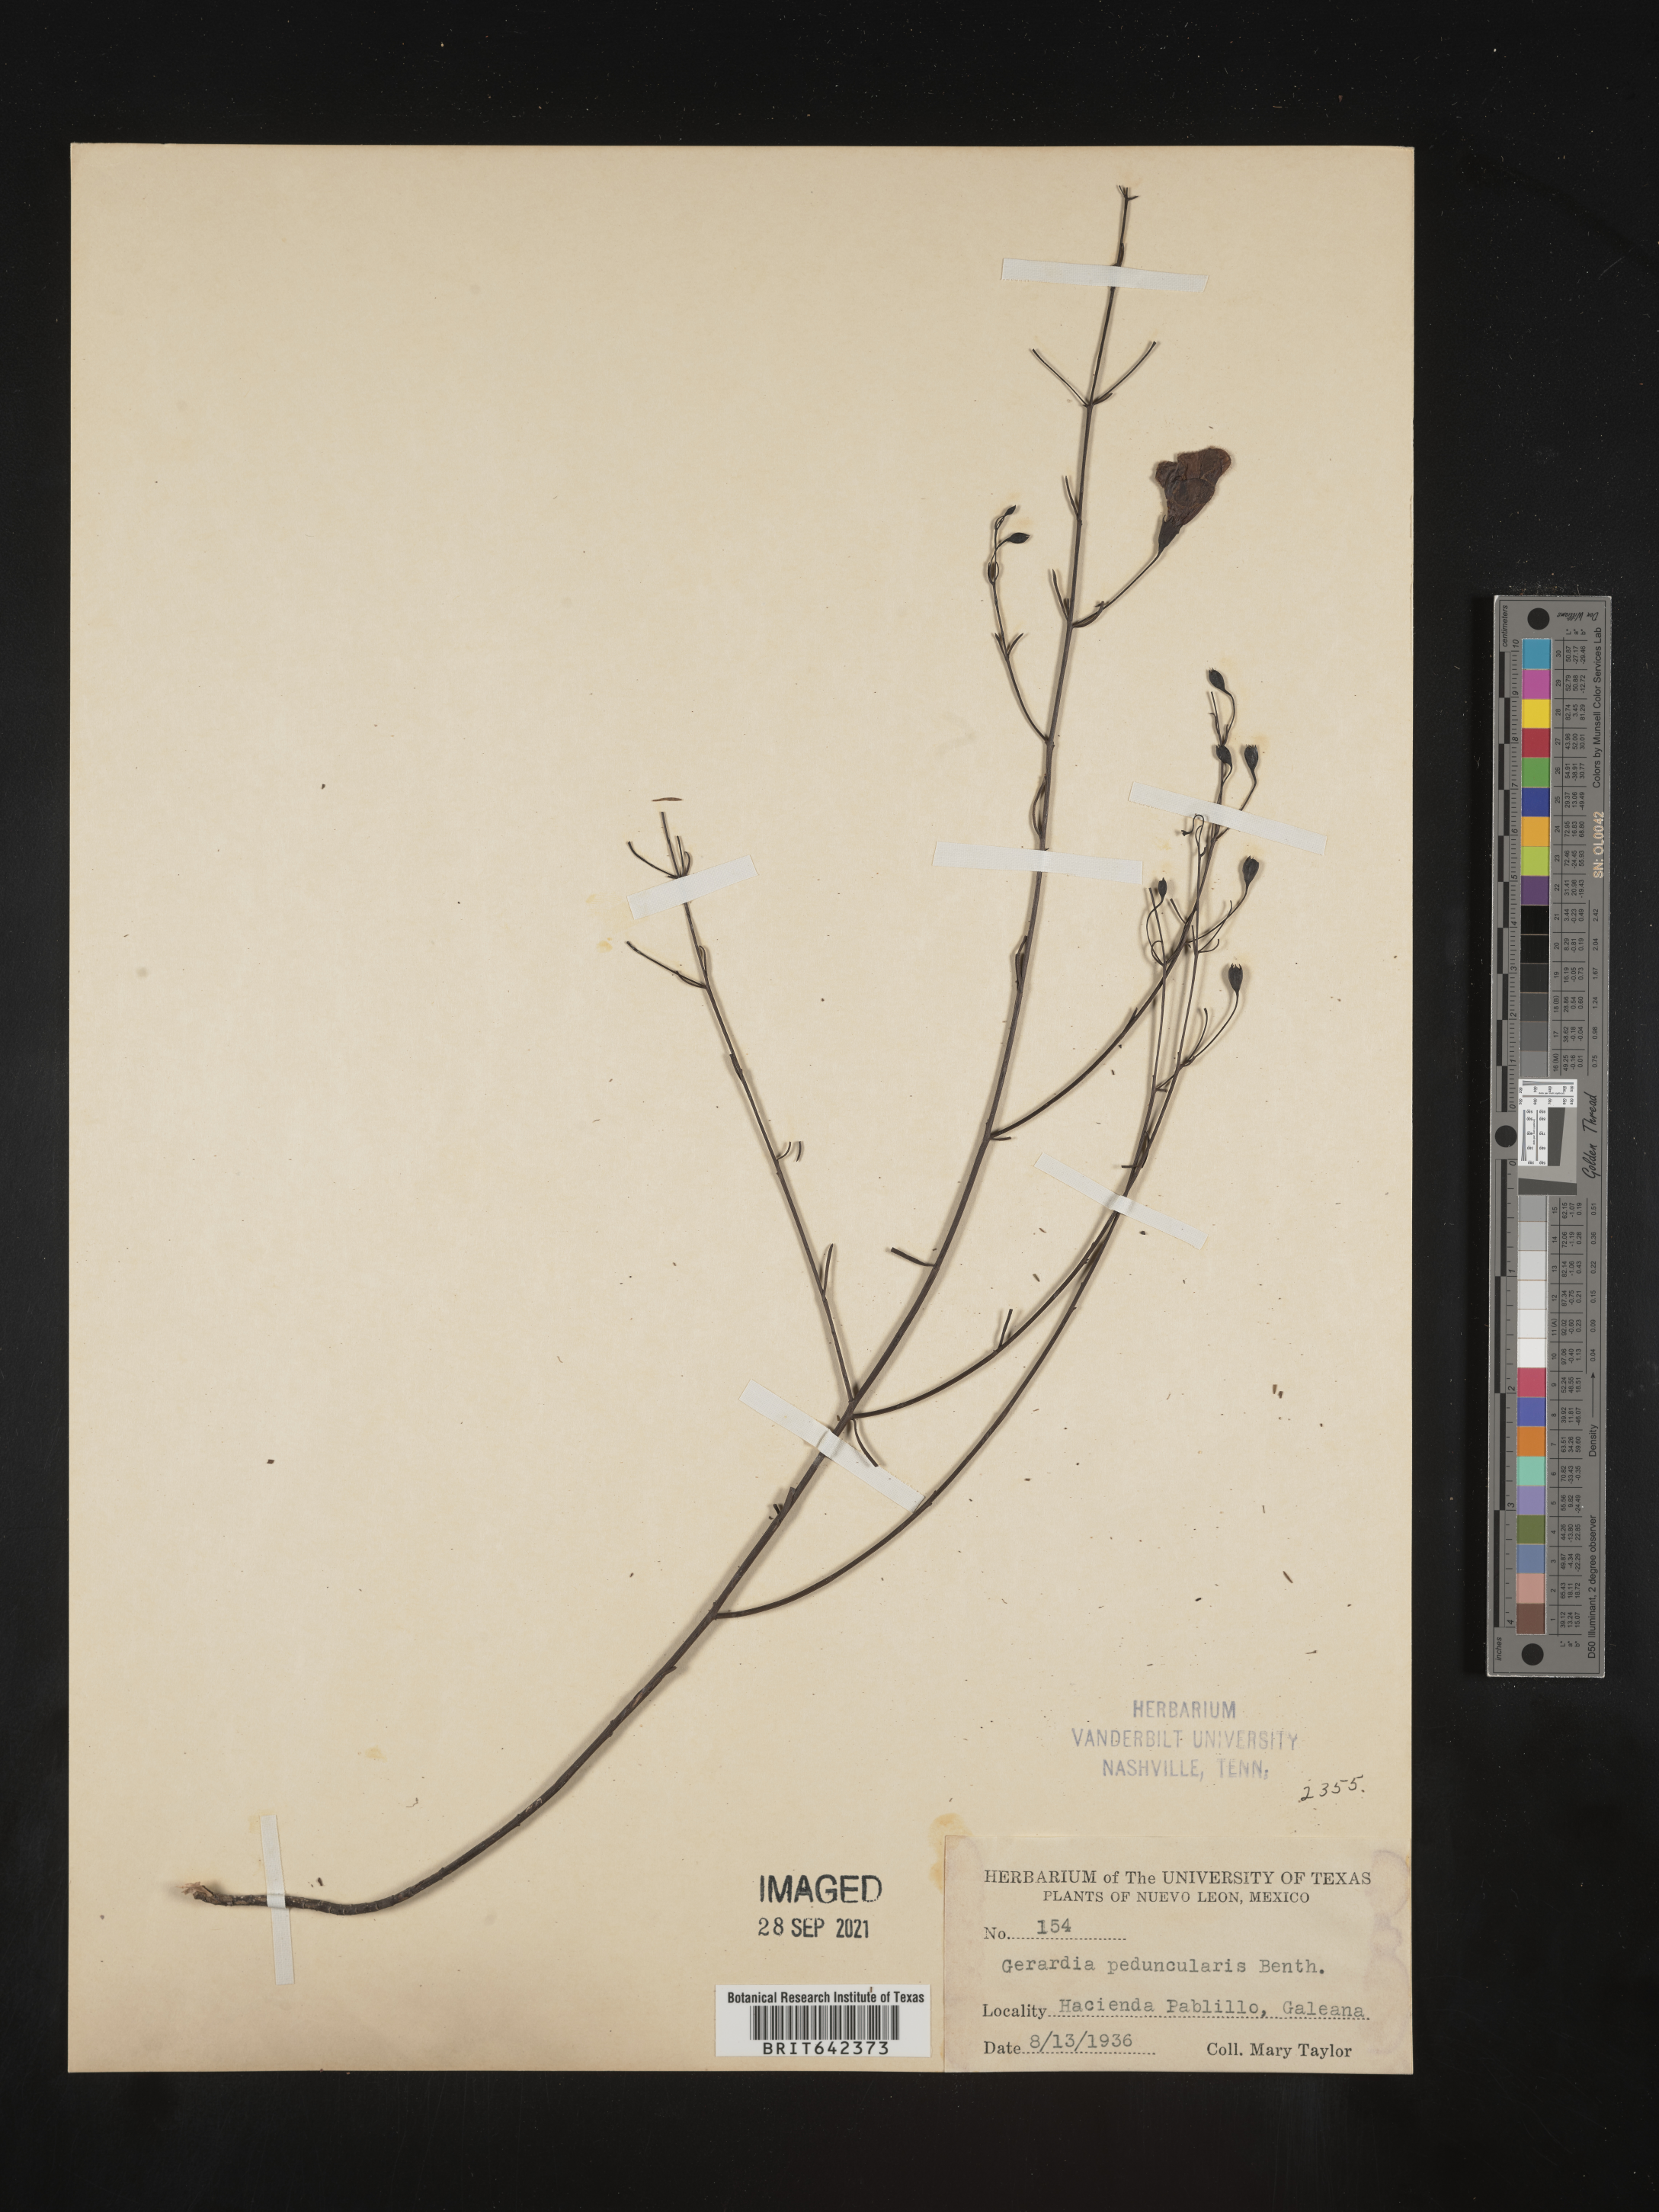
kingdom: Plantae
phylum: Tracheophyta
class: Magnoliopsida
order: Lamiales
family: Orobanchaceae
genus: Agalinis
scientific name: Agalinis
